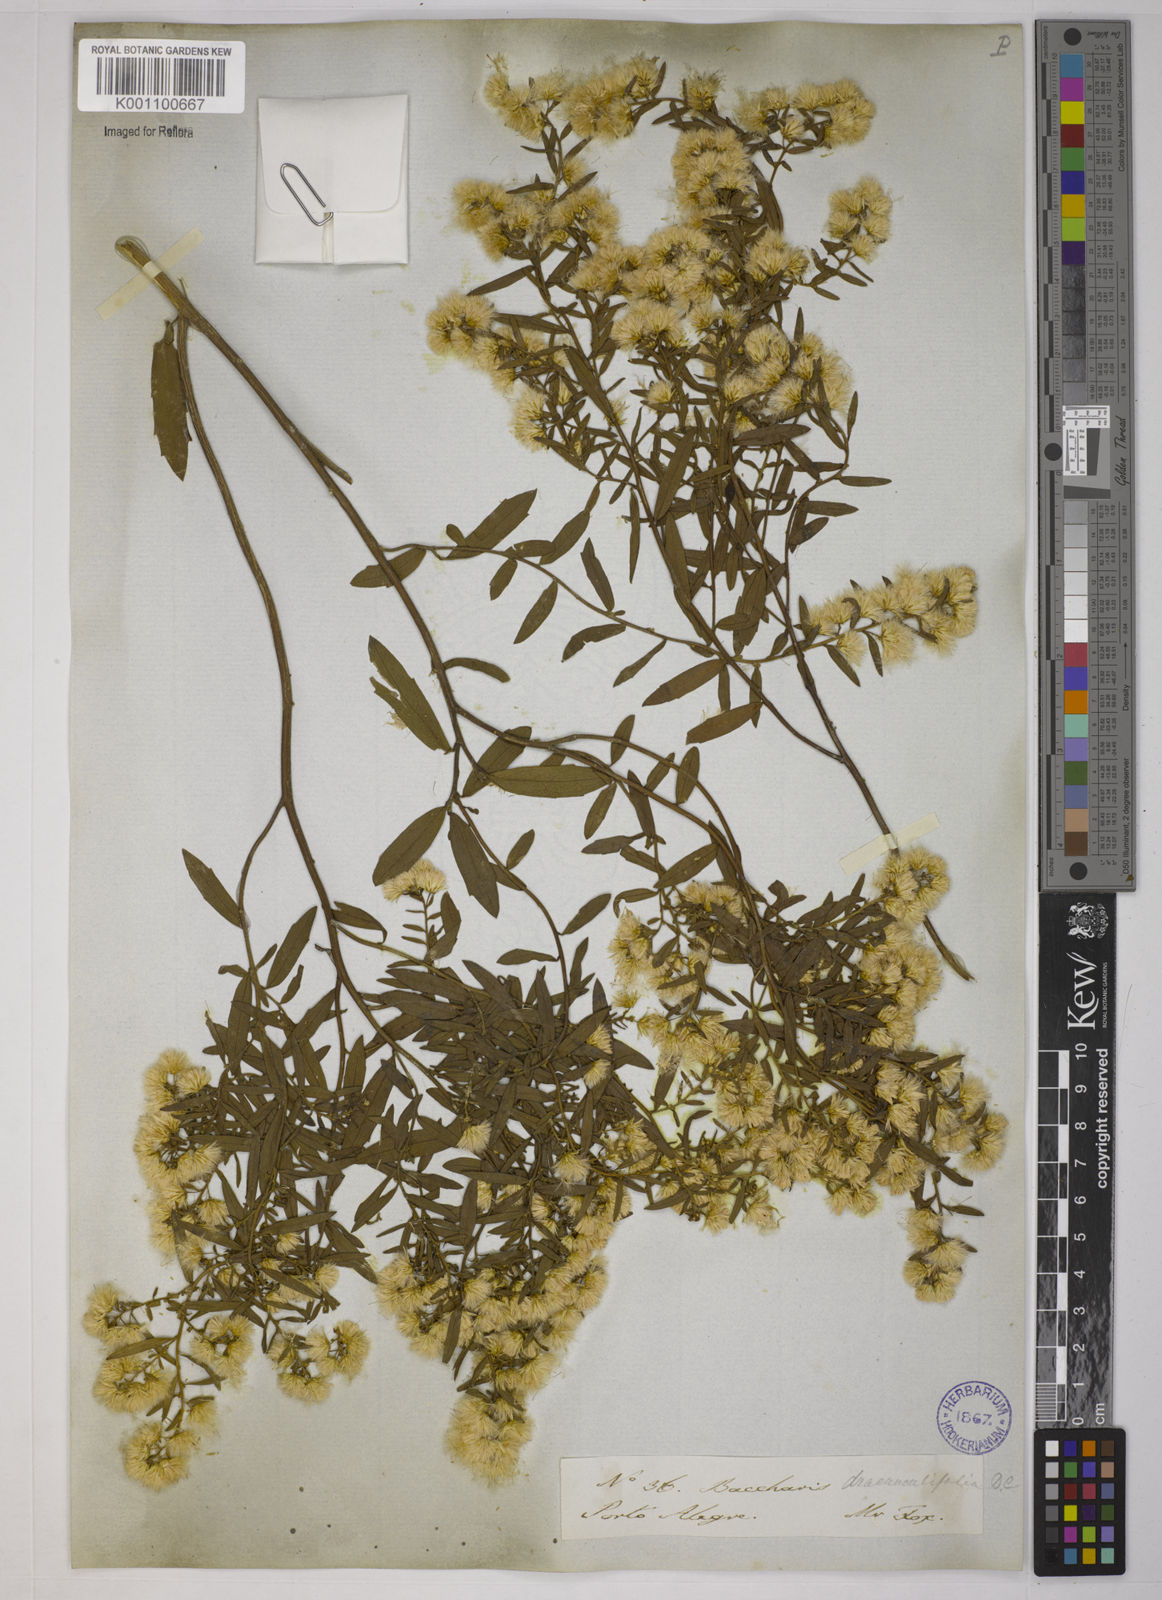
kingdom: Plantae
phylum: Tracheophyta
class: Magnoliopsida
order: Asterales
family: Asteraceae
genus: Baccharis
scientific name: Baccharis dracunculifolia
